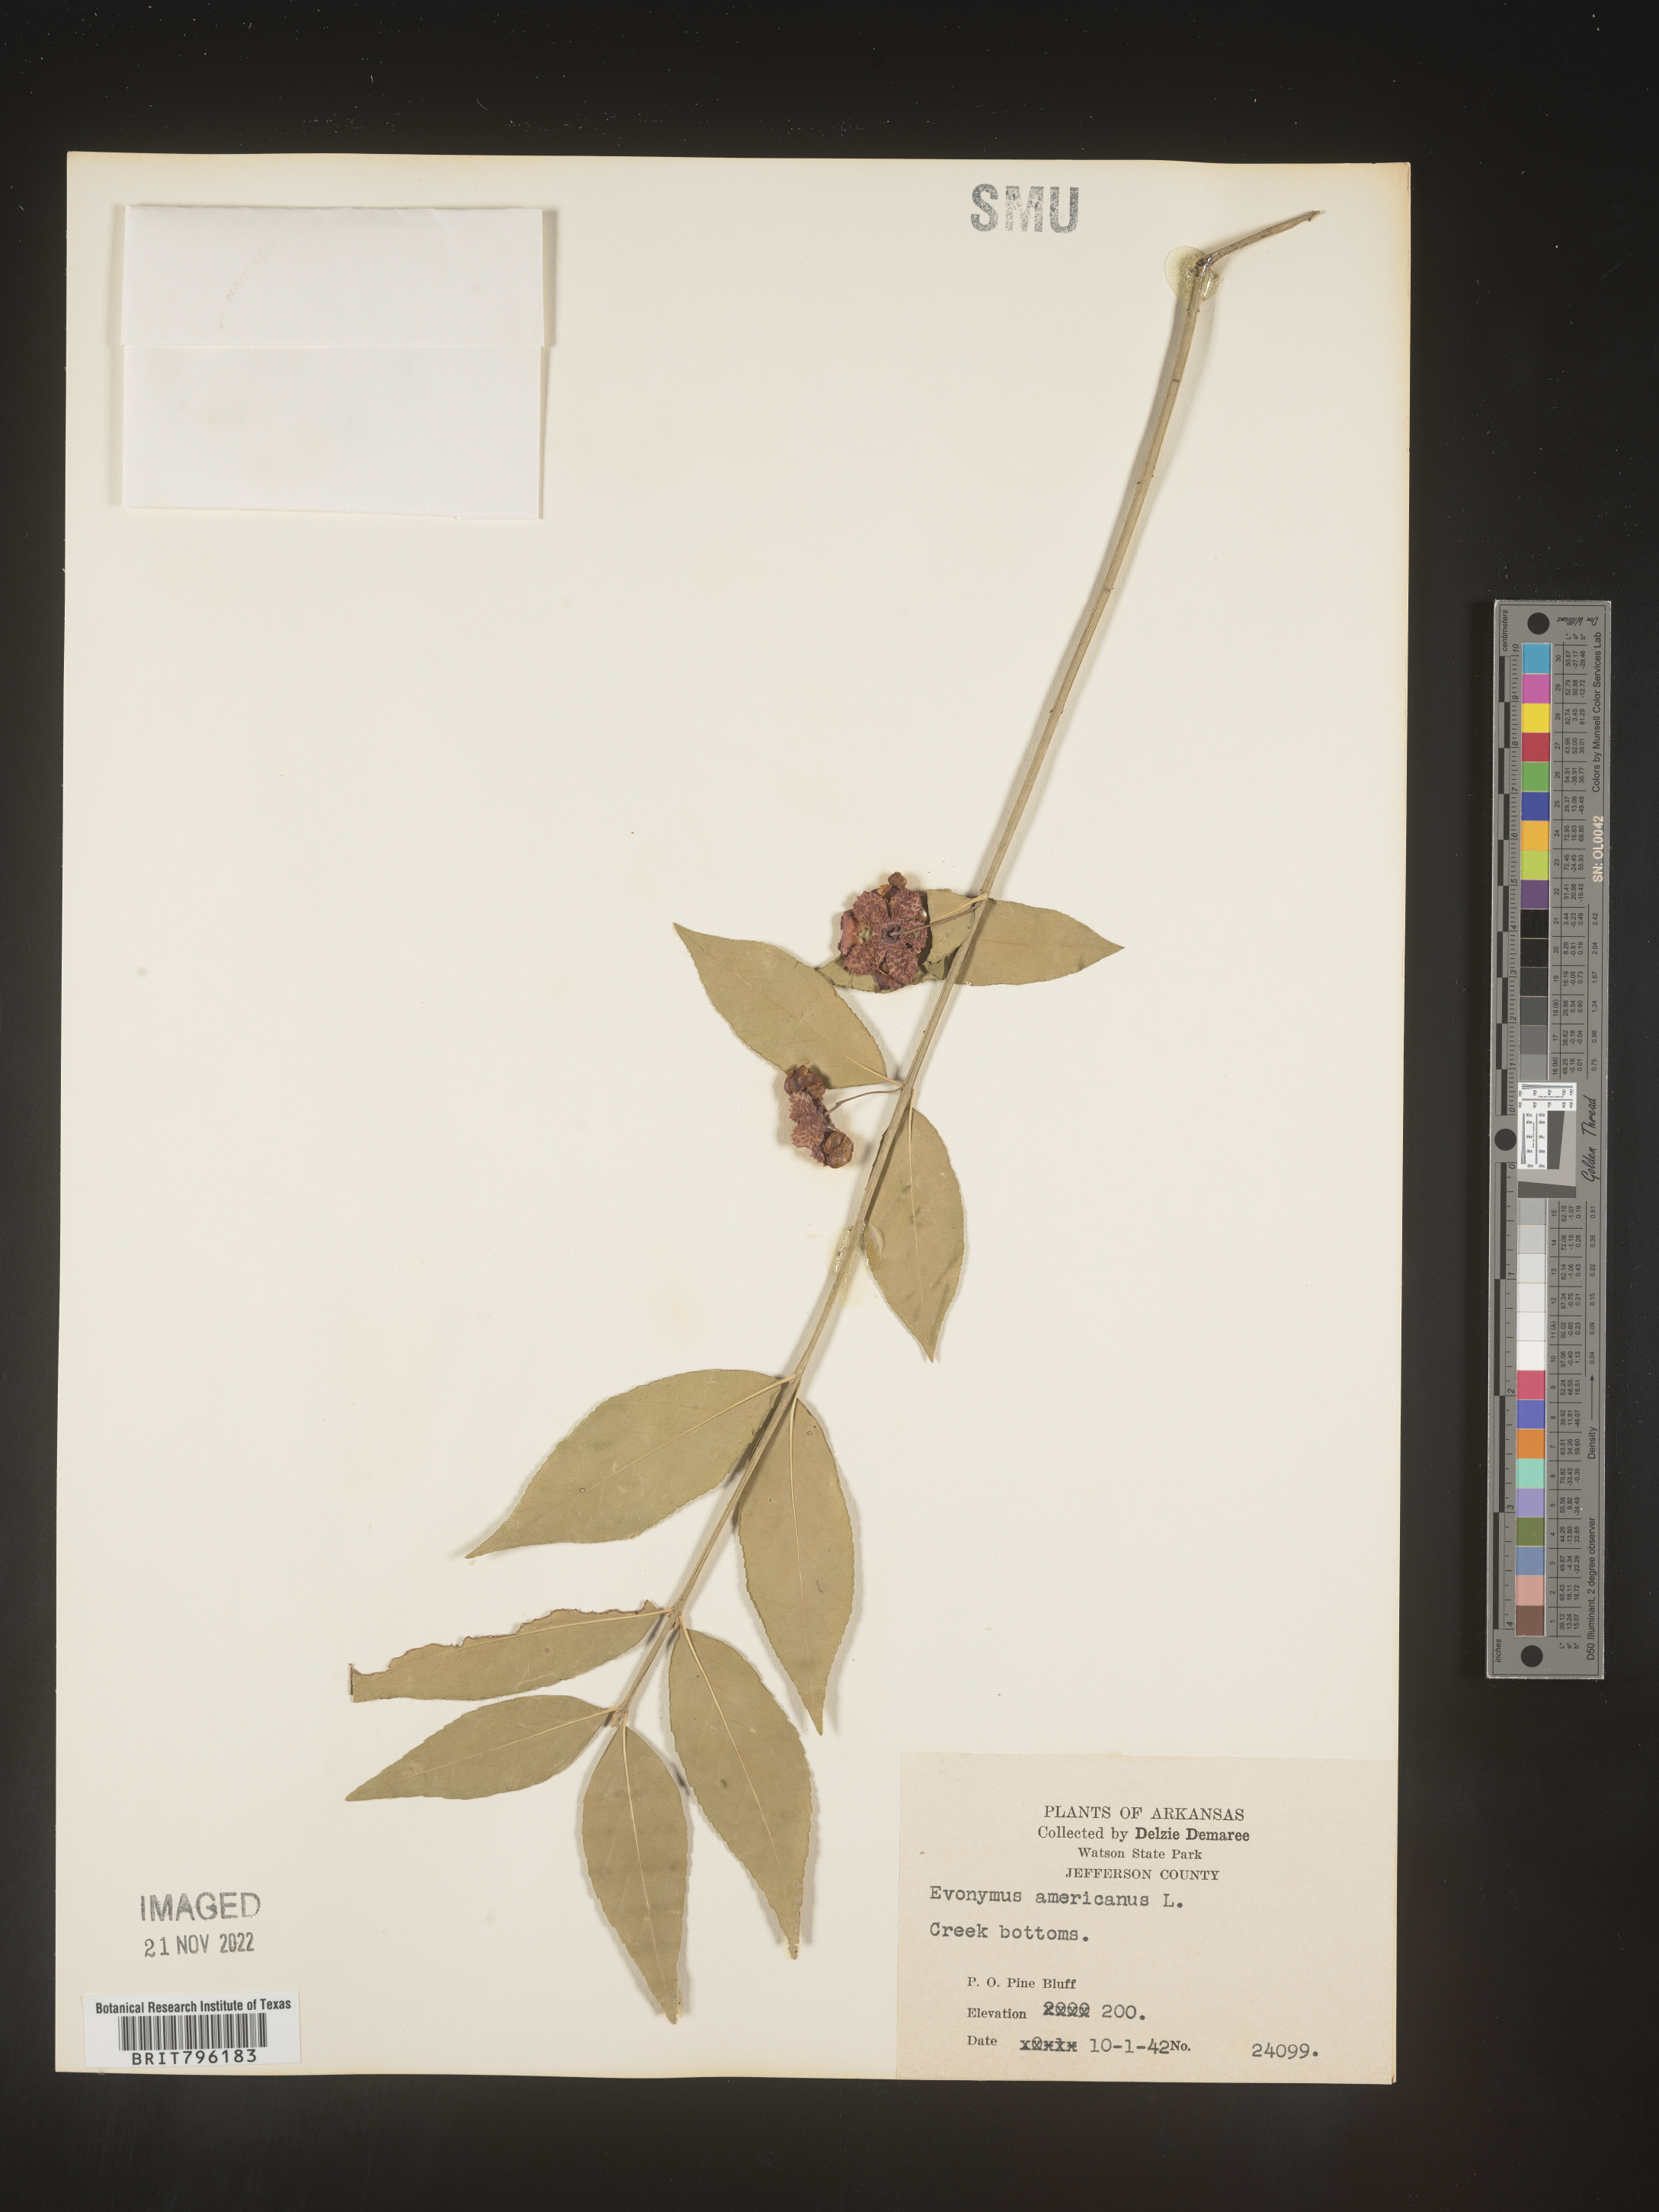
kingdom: Plantae
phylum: Tracheophyta
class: Magnoliopsida
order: Celastrales
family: Celastraceae
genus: Euonymus
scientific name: Euonymus americanus
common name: Bursting-heart
